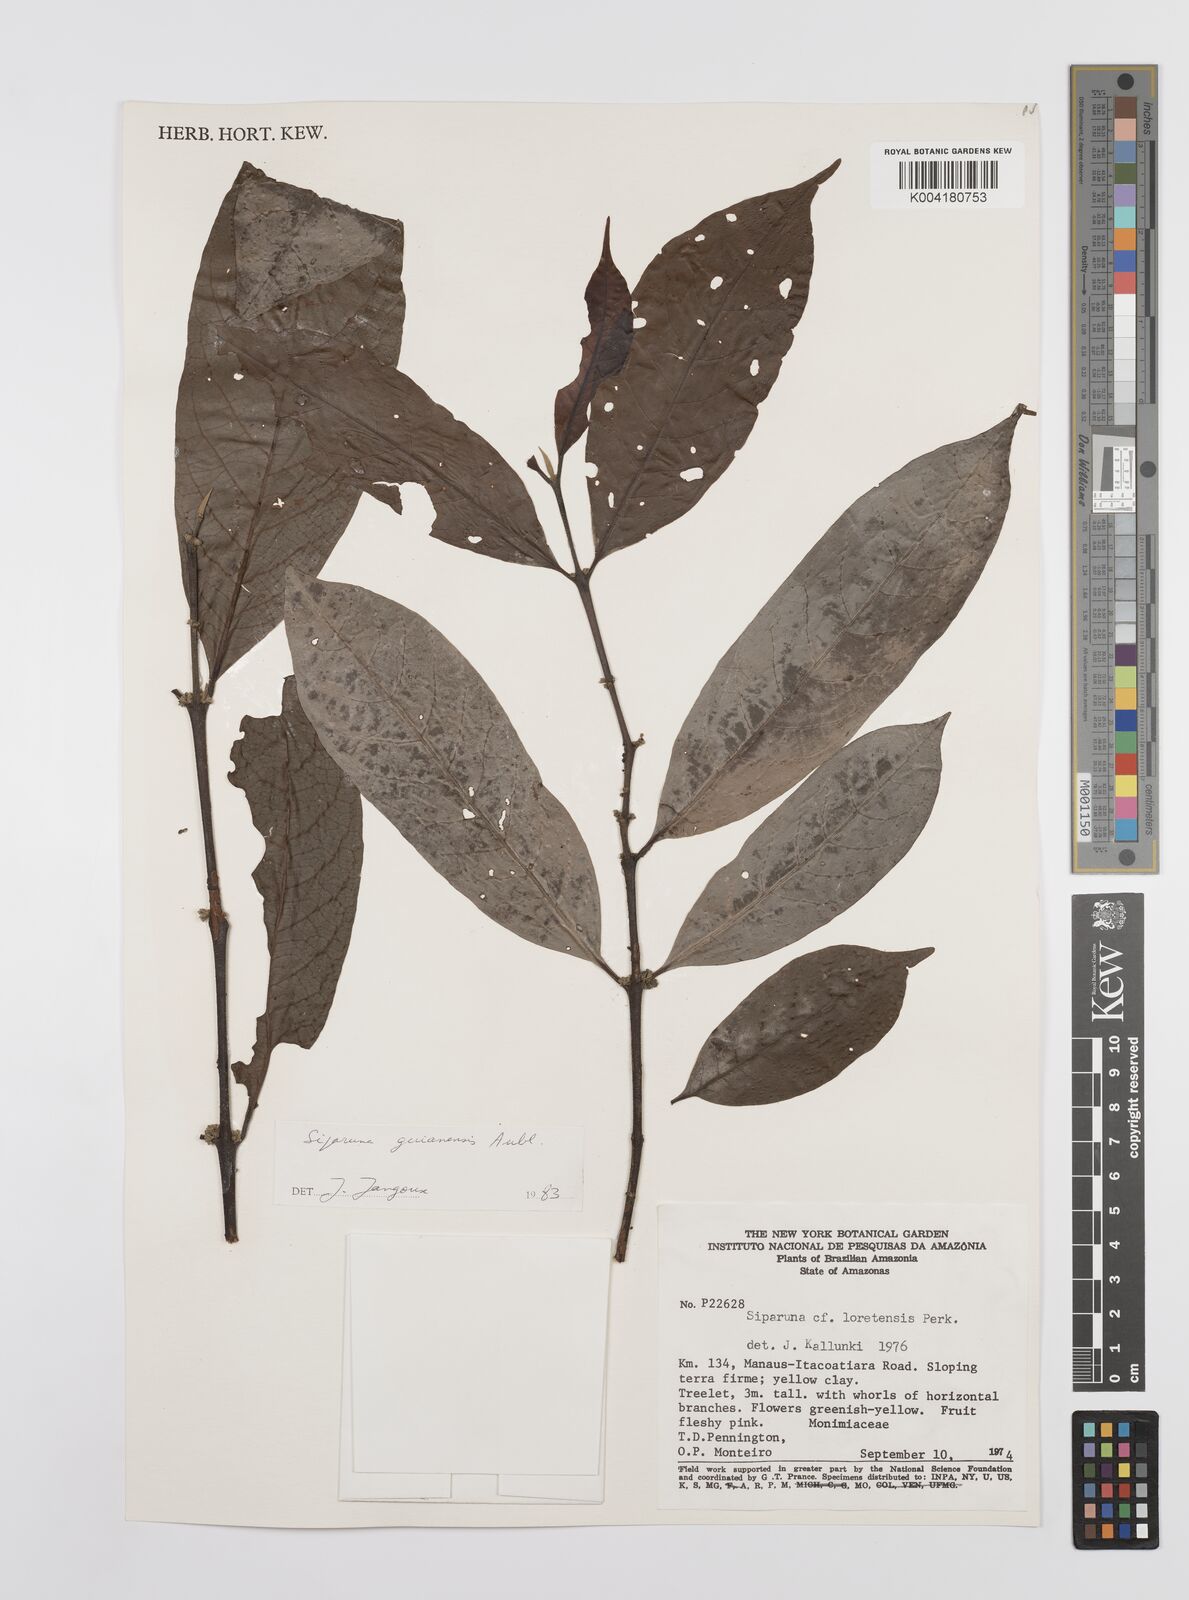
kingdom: Plantae
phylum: Tracheophyta
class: Magnoliopsida
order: Laurales
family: Siparunaceae
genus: Siparuna
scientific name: Siparuna guianensis
